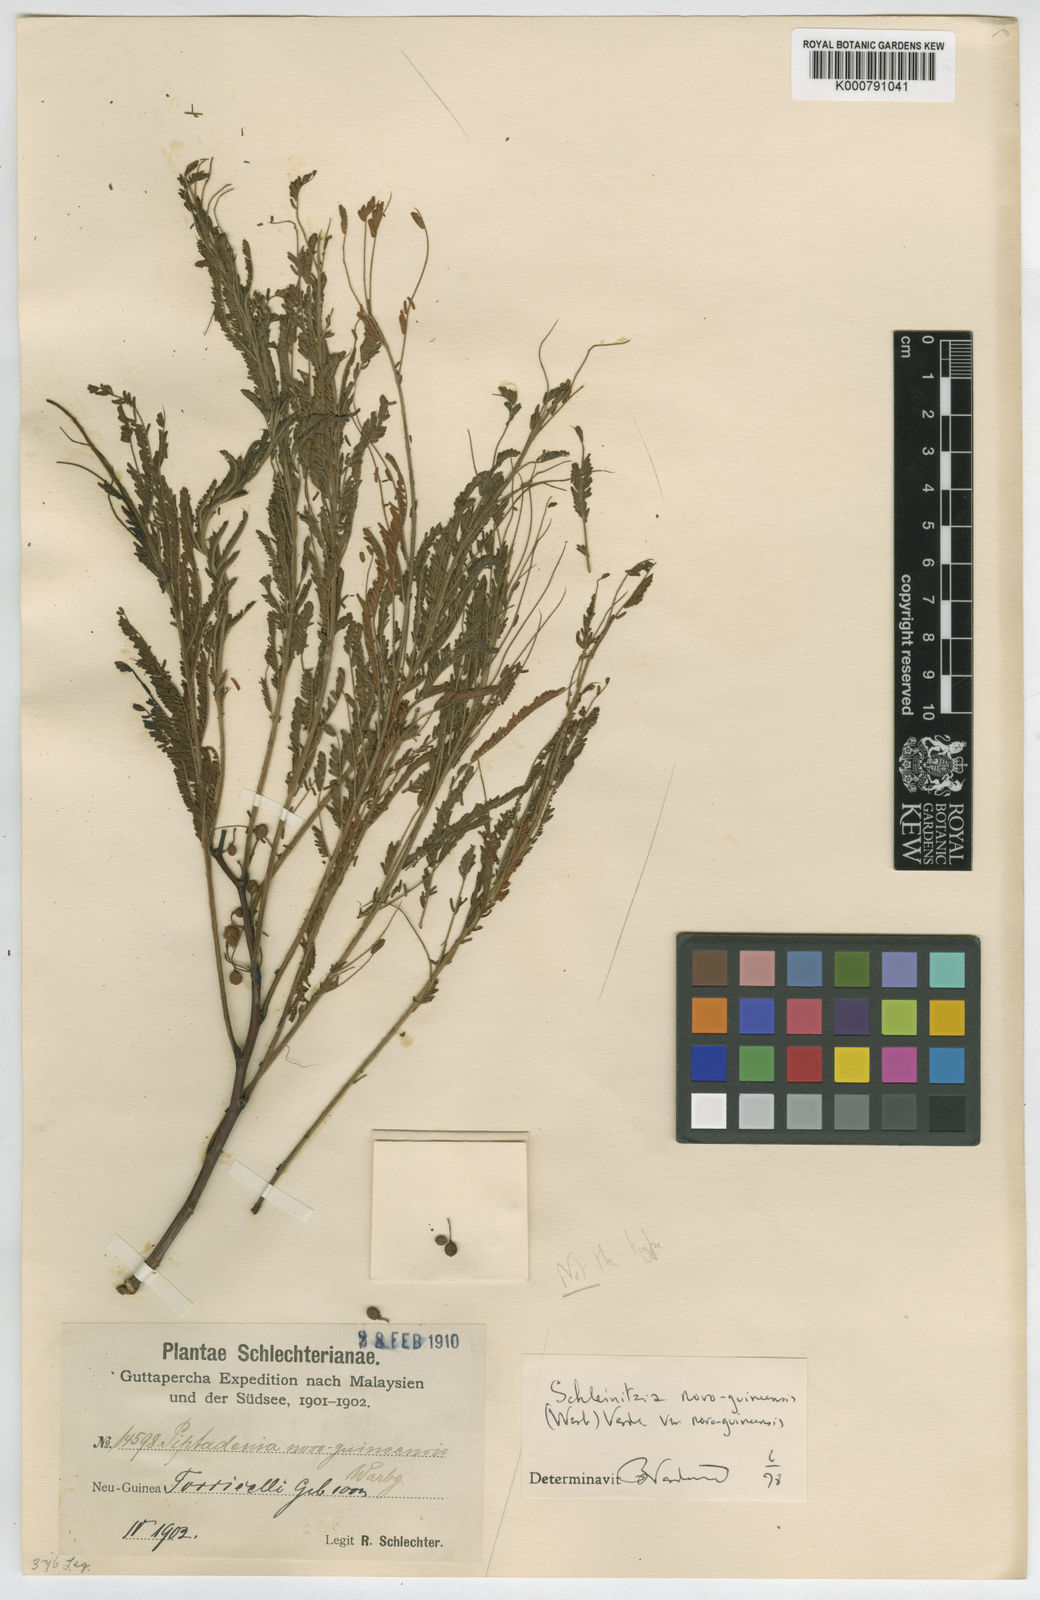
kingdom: Plantae
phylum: Tracheophyta
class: Magnoliopsida
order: Fabales
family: Fabaceae
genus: Schleinitzia
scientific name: Schleinitzia novoguineensis
